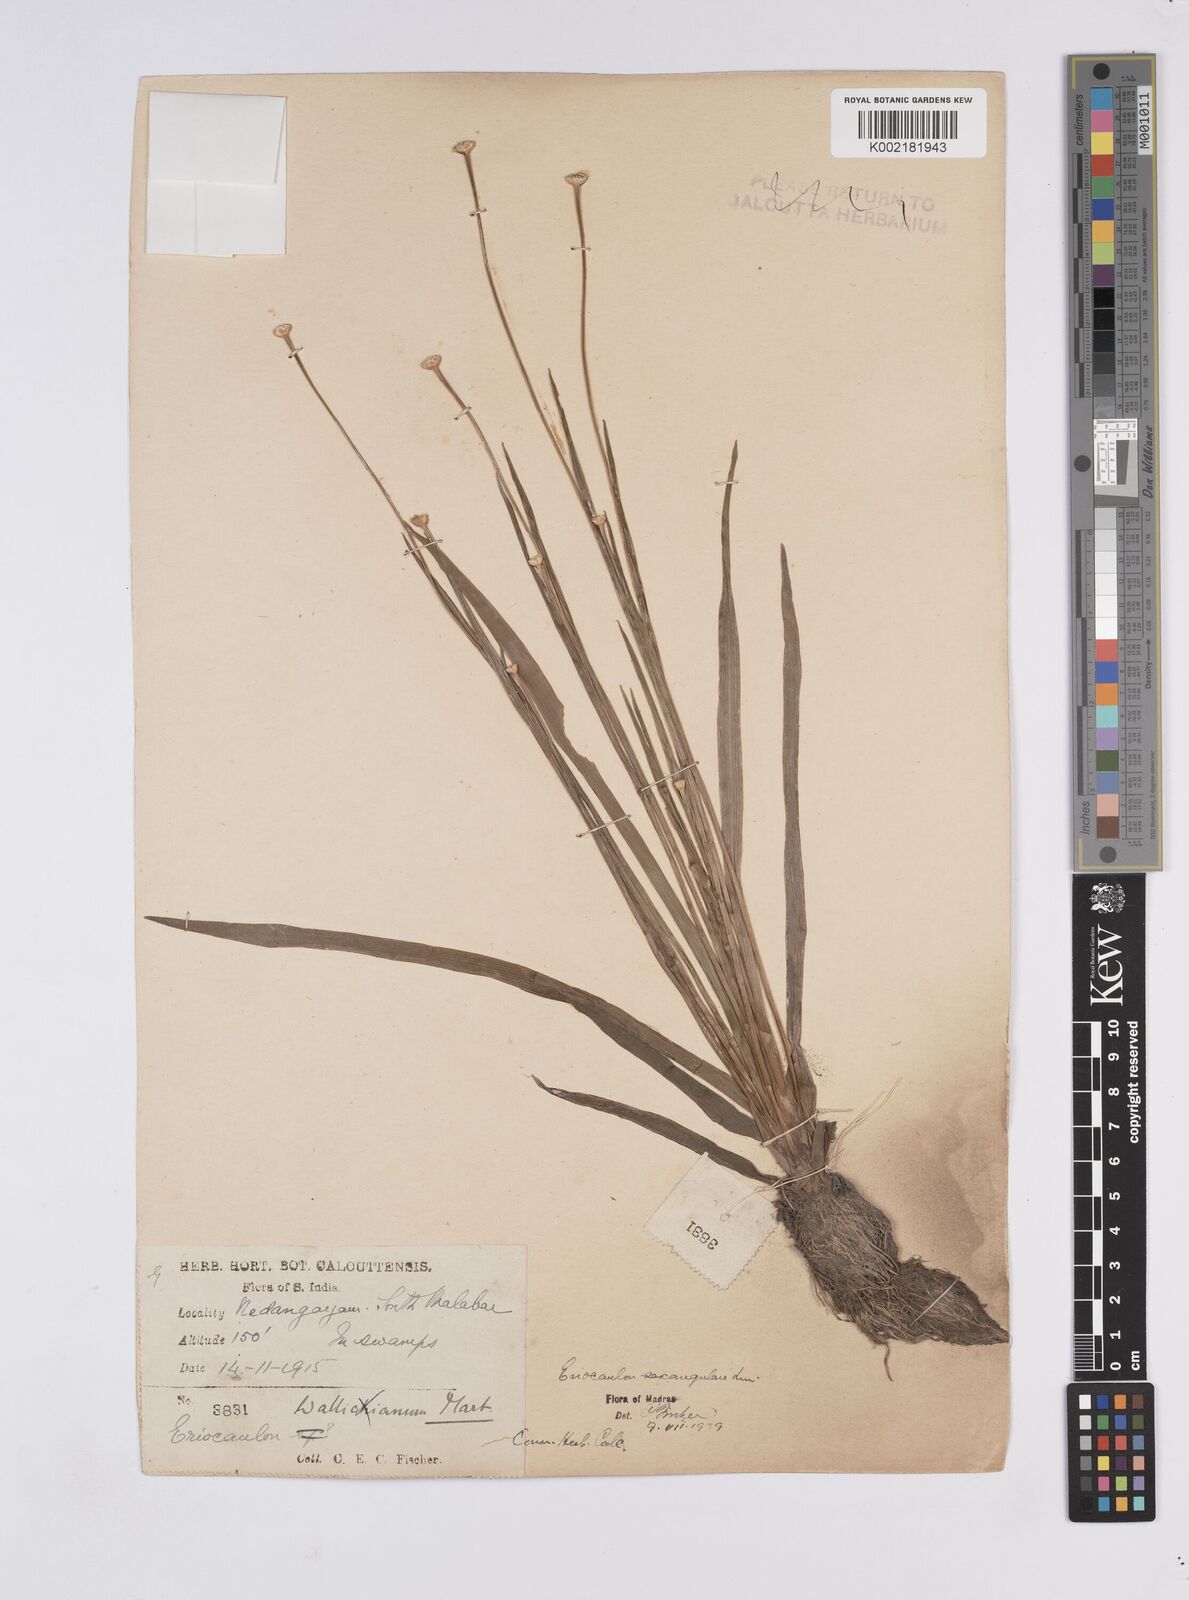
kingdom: Plantae
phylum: Tracheophyta
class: Liliopsida
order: Poales
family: Eriocaulaceae
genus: Eriocaulon
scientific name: Eriocaulon sexangulare
